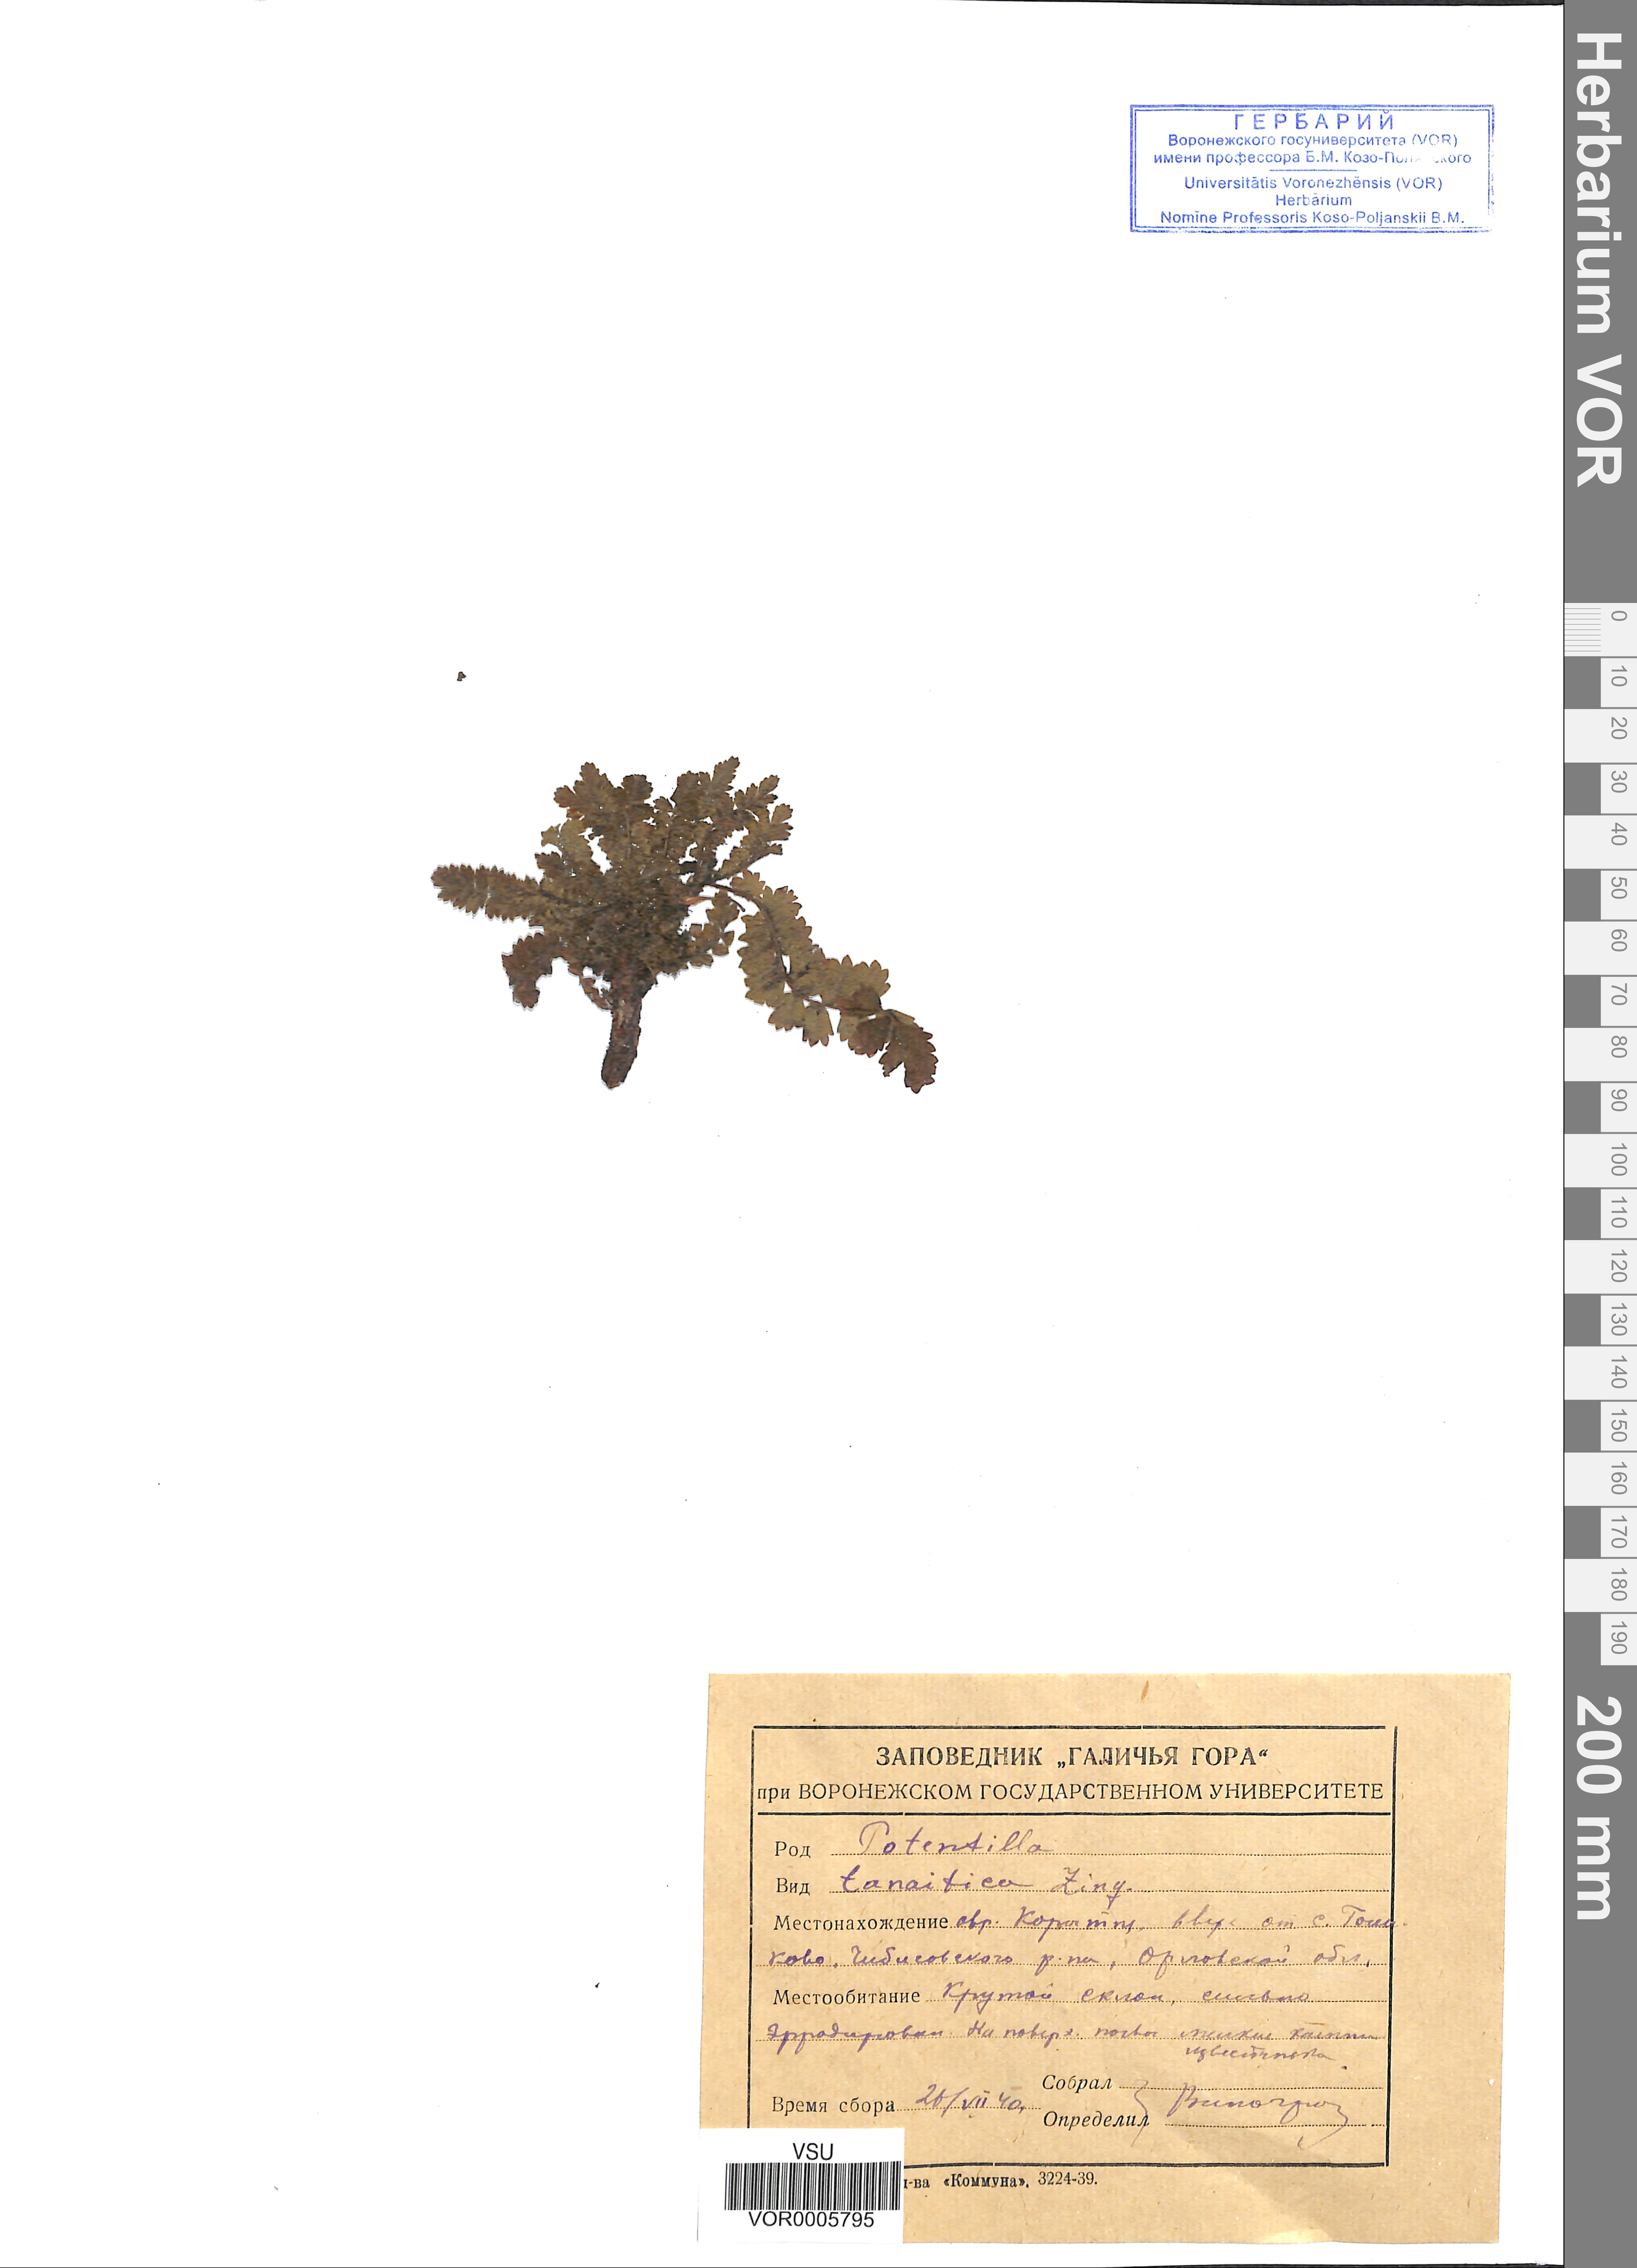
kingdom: Plantae
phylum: Tracheophyta
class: Magnoliopsida
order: Rosales
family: Rosaceae
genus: Potentilla
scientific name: Potentilla tanaitica
